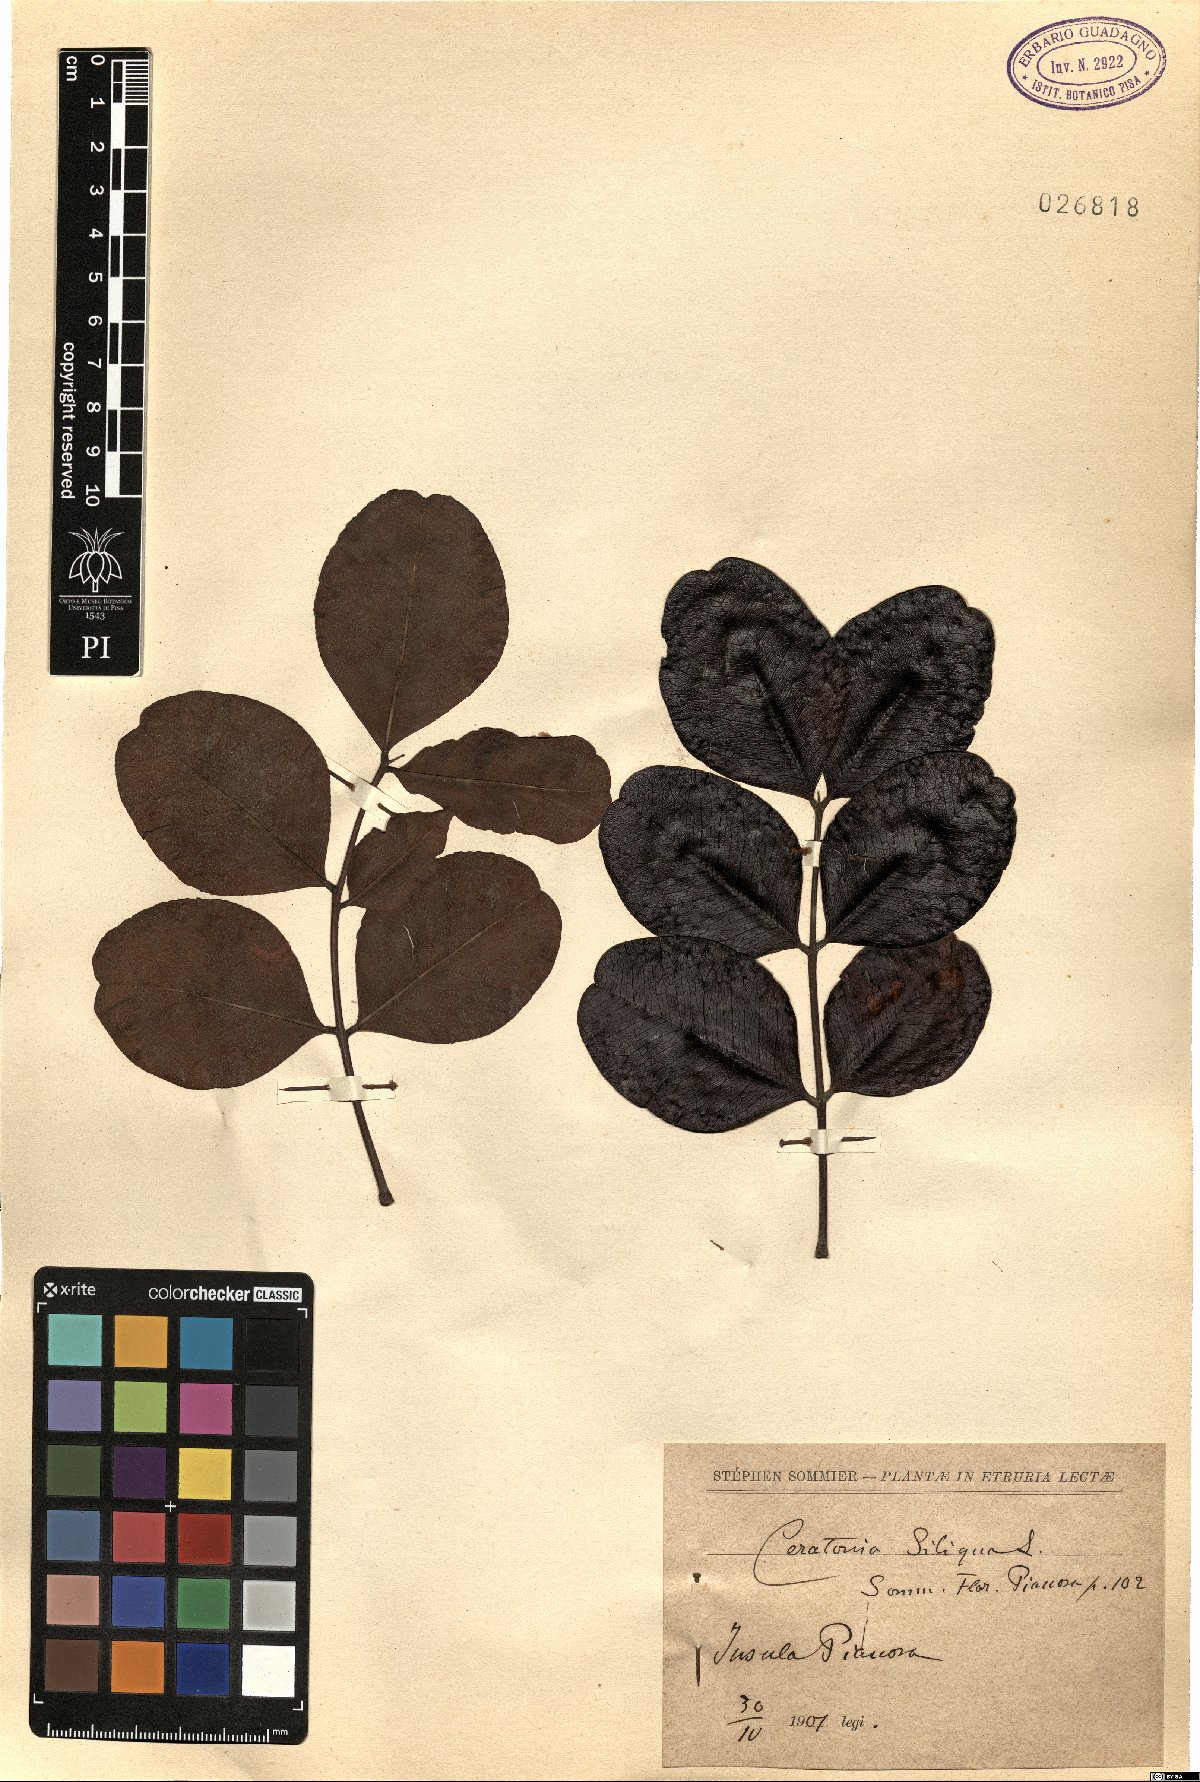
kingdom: Plantae
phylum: Tracheophyta
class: Magnoliopsida
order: Fabales
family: Fabaceae
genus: Ceratonia
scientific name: Ceratonia siliqua
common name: Carob
